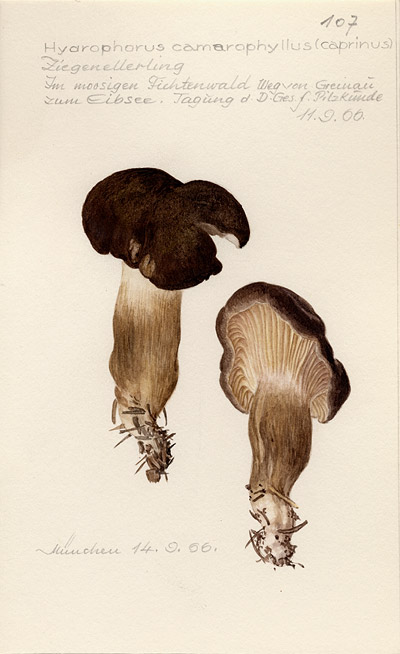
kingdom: Fungi
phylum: Basidiomycota
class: Agaricomycetes
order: Agaricales
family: Hygrophoraceae
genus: Hygrophorus
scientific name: Hygrophorus camarophyllus
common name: Arched woodwax
